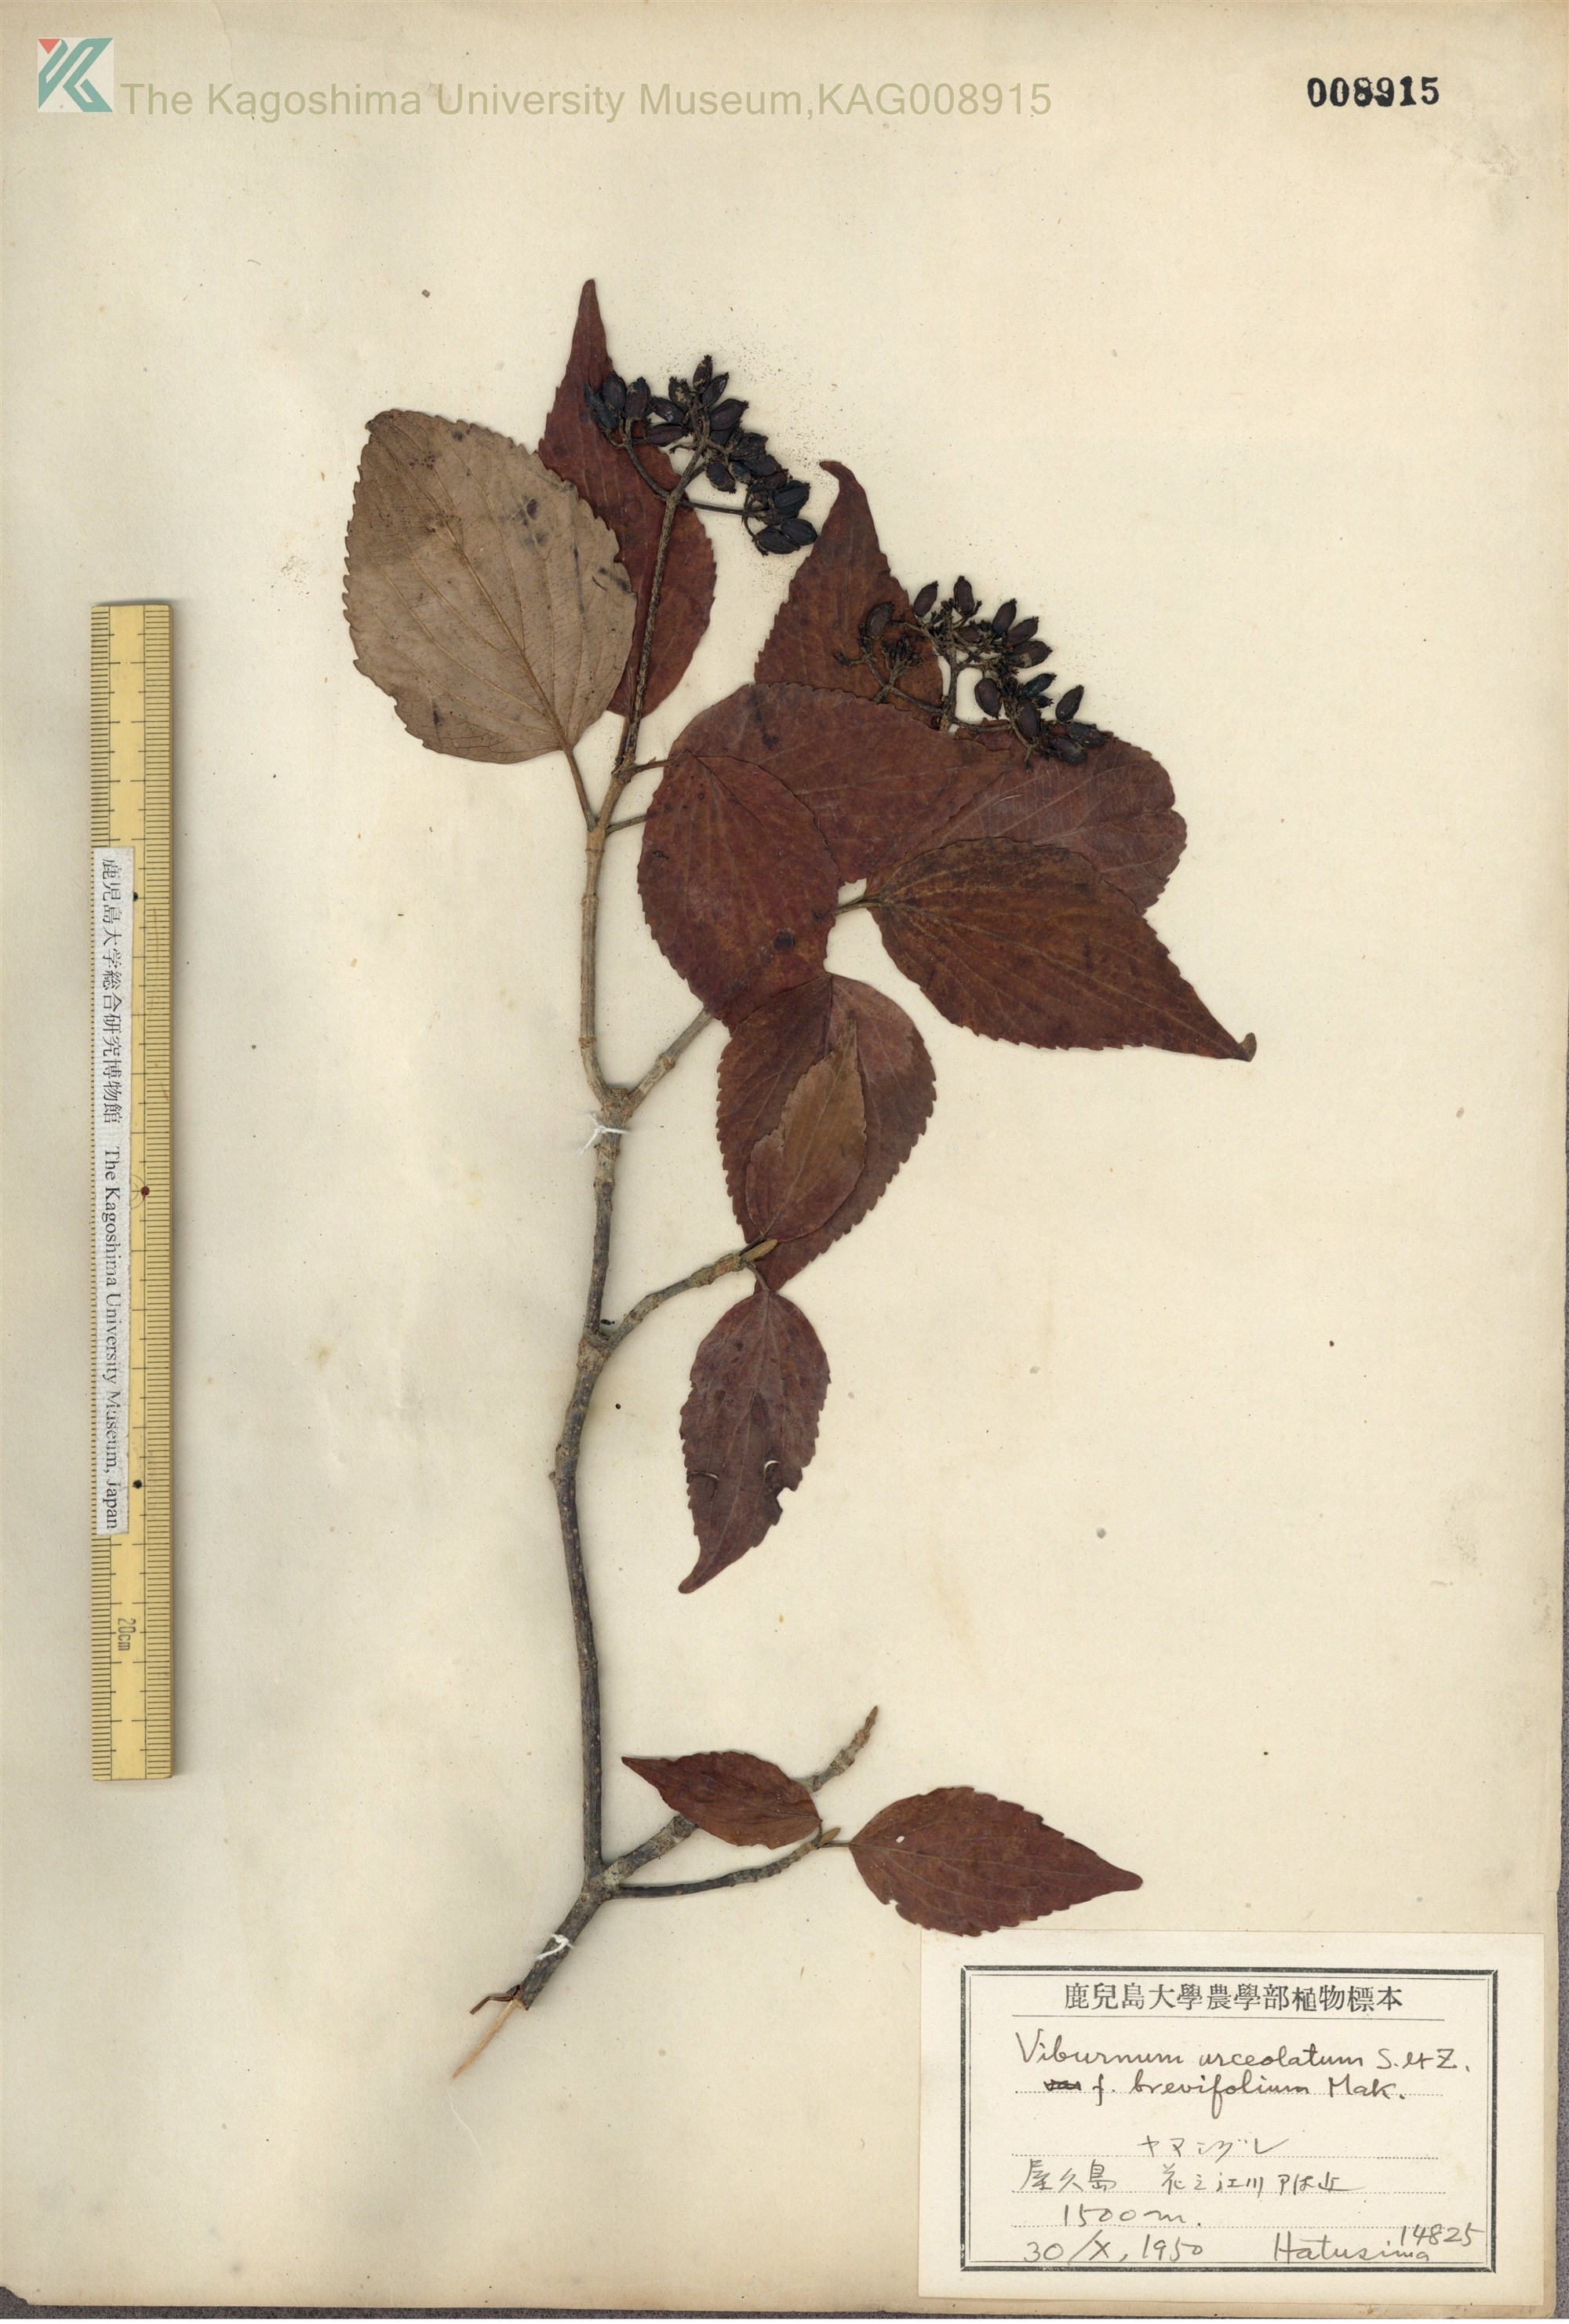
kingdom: Plantae
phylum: Tracheophyta
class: Magnoliopsida
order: Dipsacales
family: Viburnaceae
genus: Viburnum
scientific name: Viburnum urceolatum
